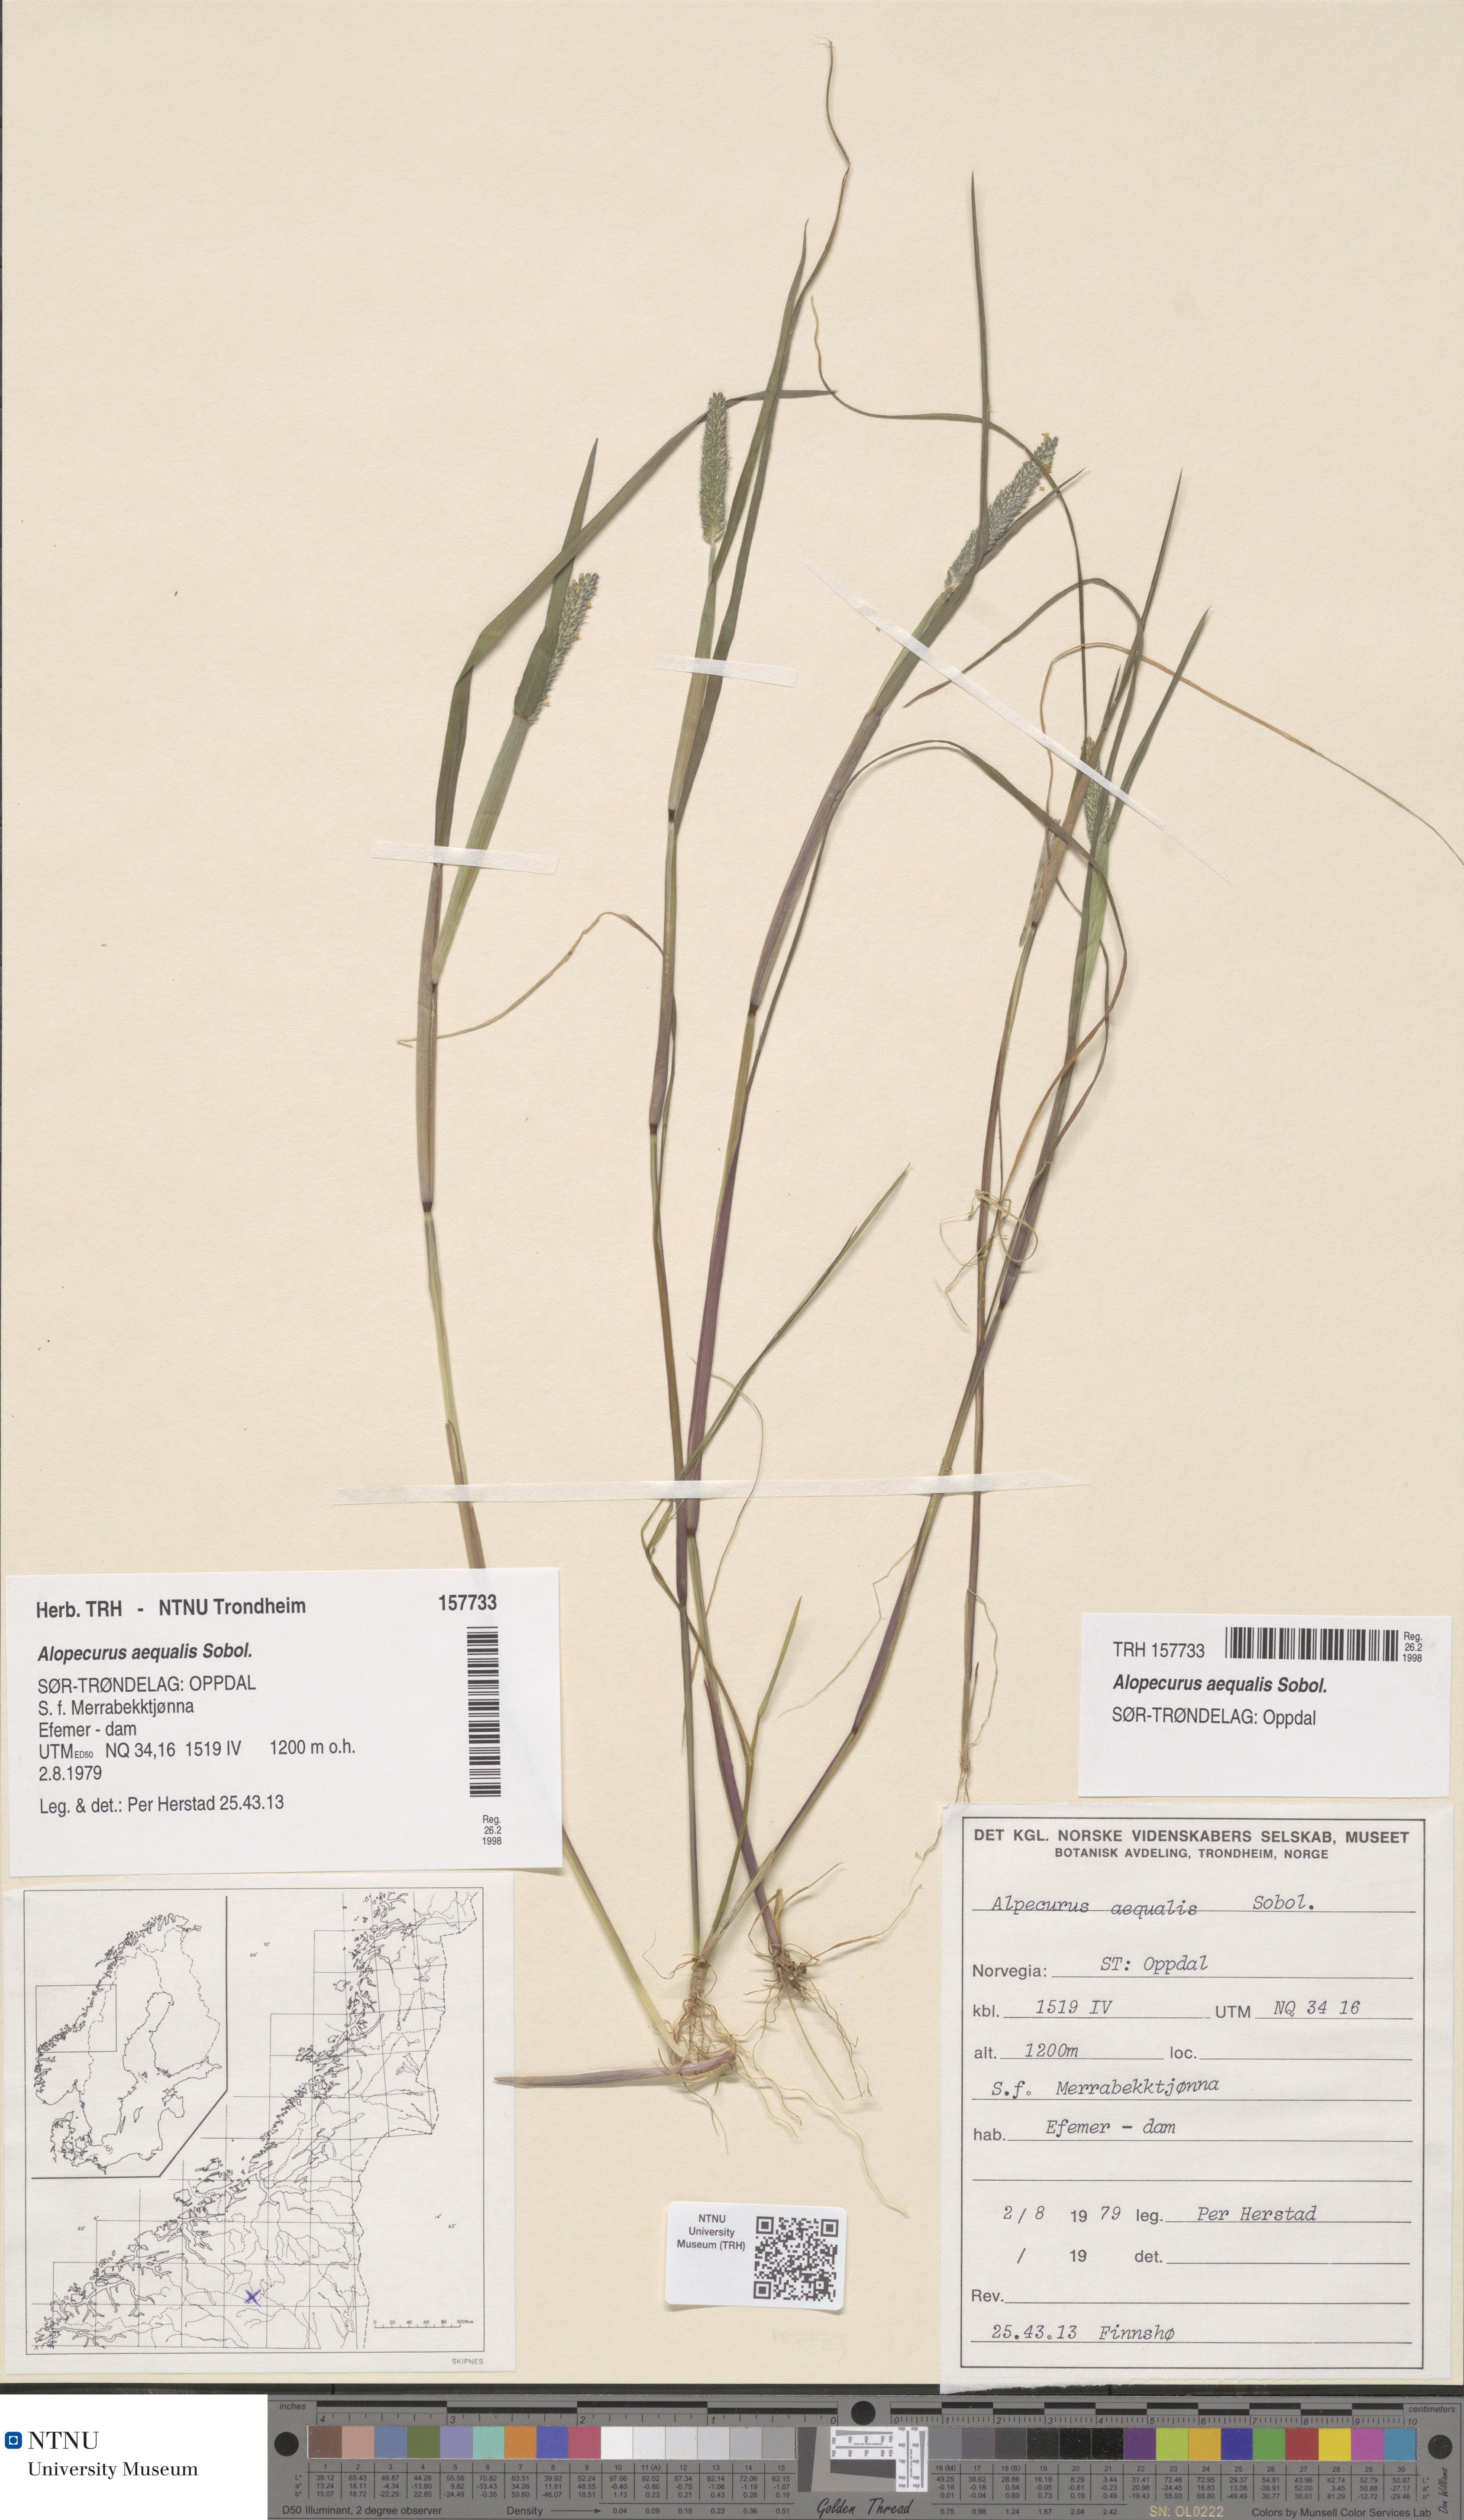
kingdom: Plantae
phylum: Tracheophyta
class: Liliopsida
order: Poales
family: Poaceae
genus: Alopecurus
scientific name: Alopecurus aequalis
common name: Orange foxtail
